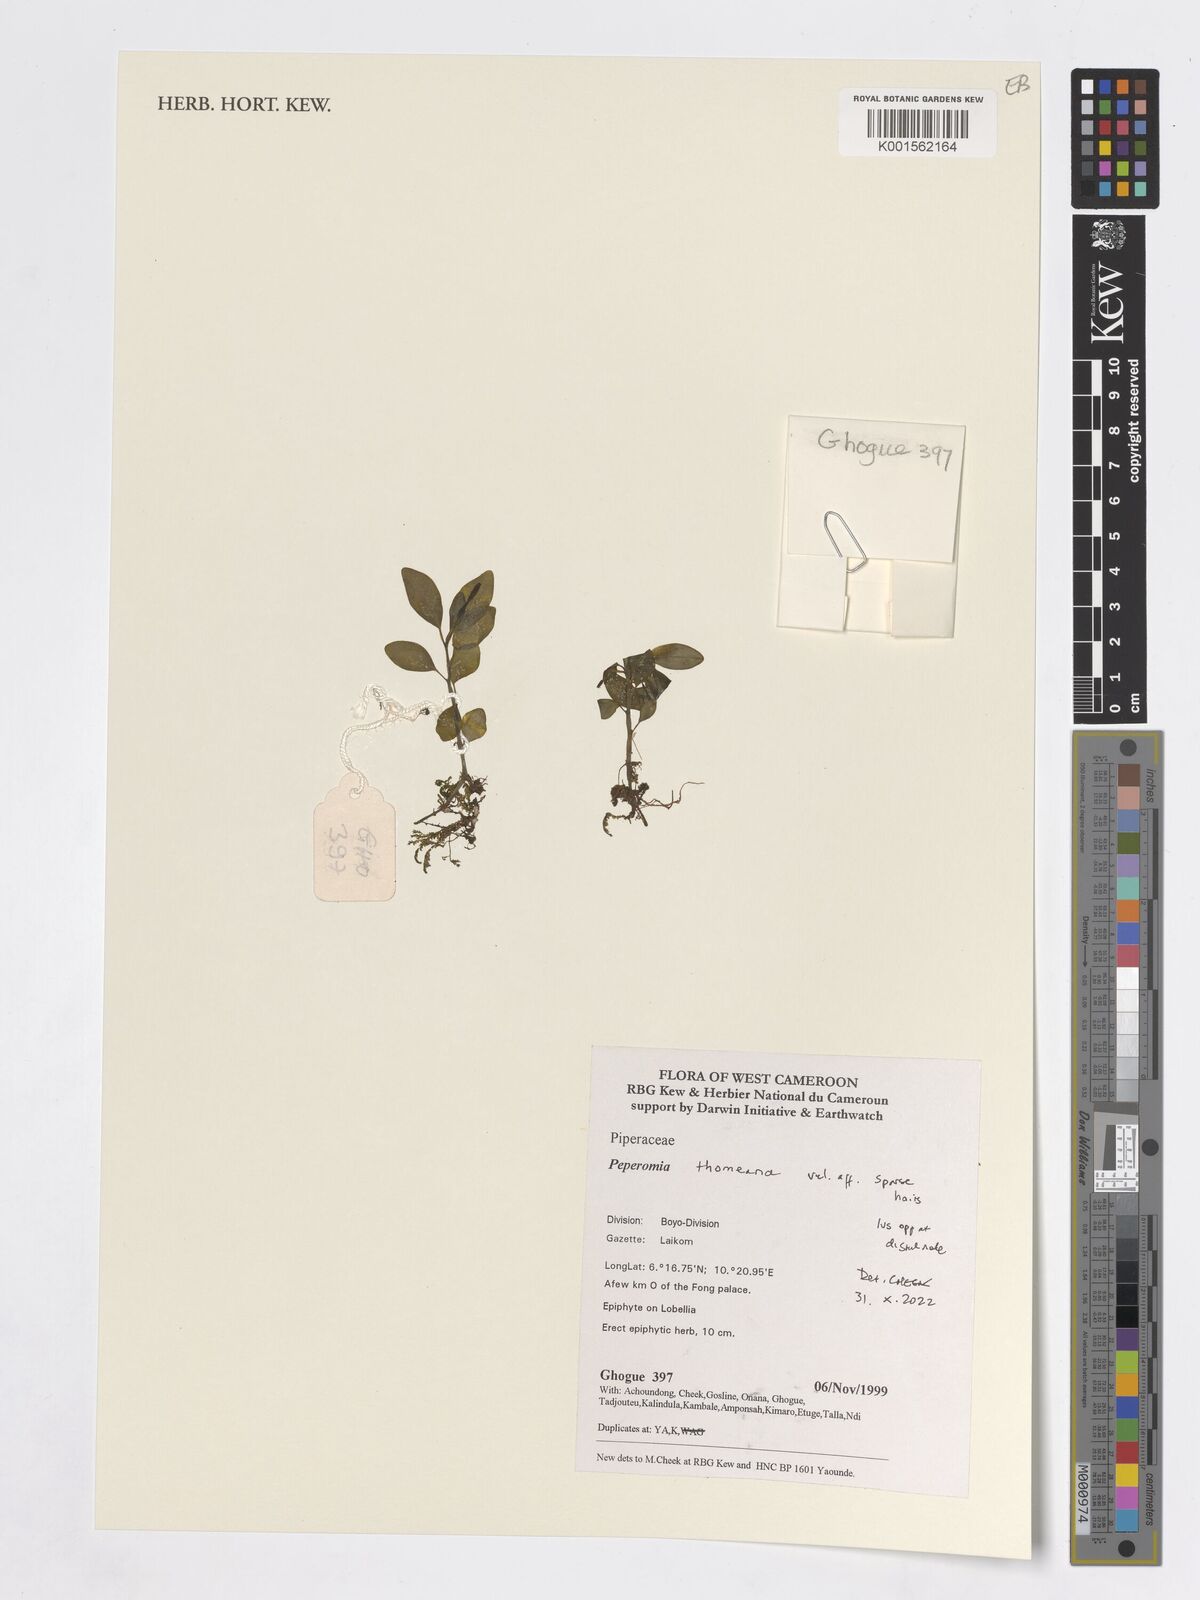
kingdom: Plantae
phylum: Tracheophyta
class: Magnoliopsida
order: Piperales
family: Piperaceae
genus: Peperomia
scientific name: Peperomia thomeana
